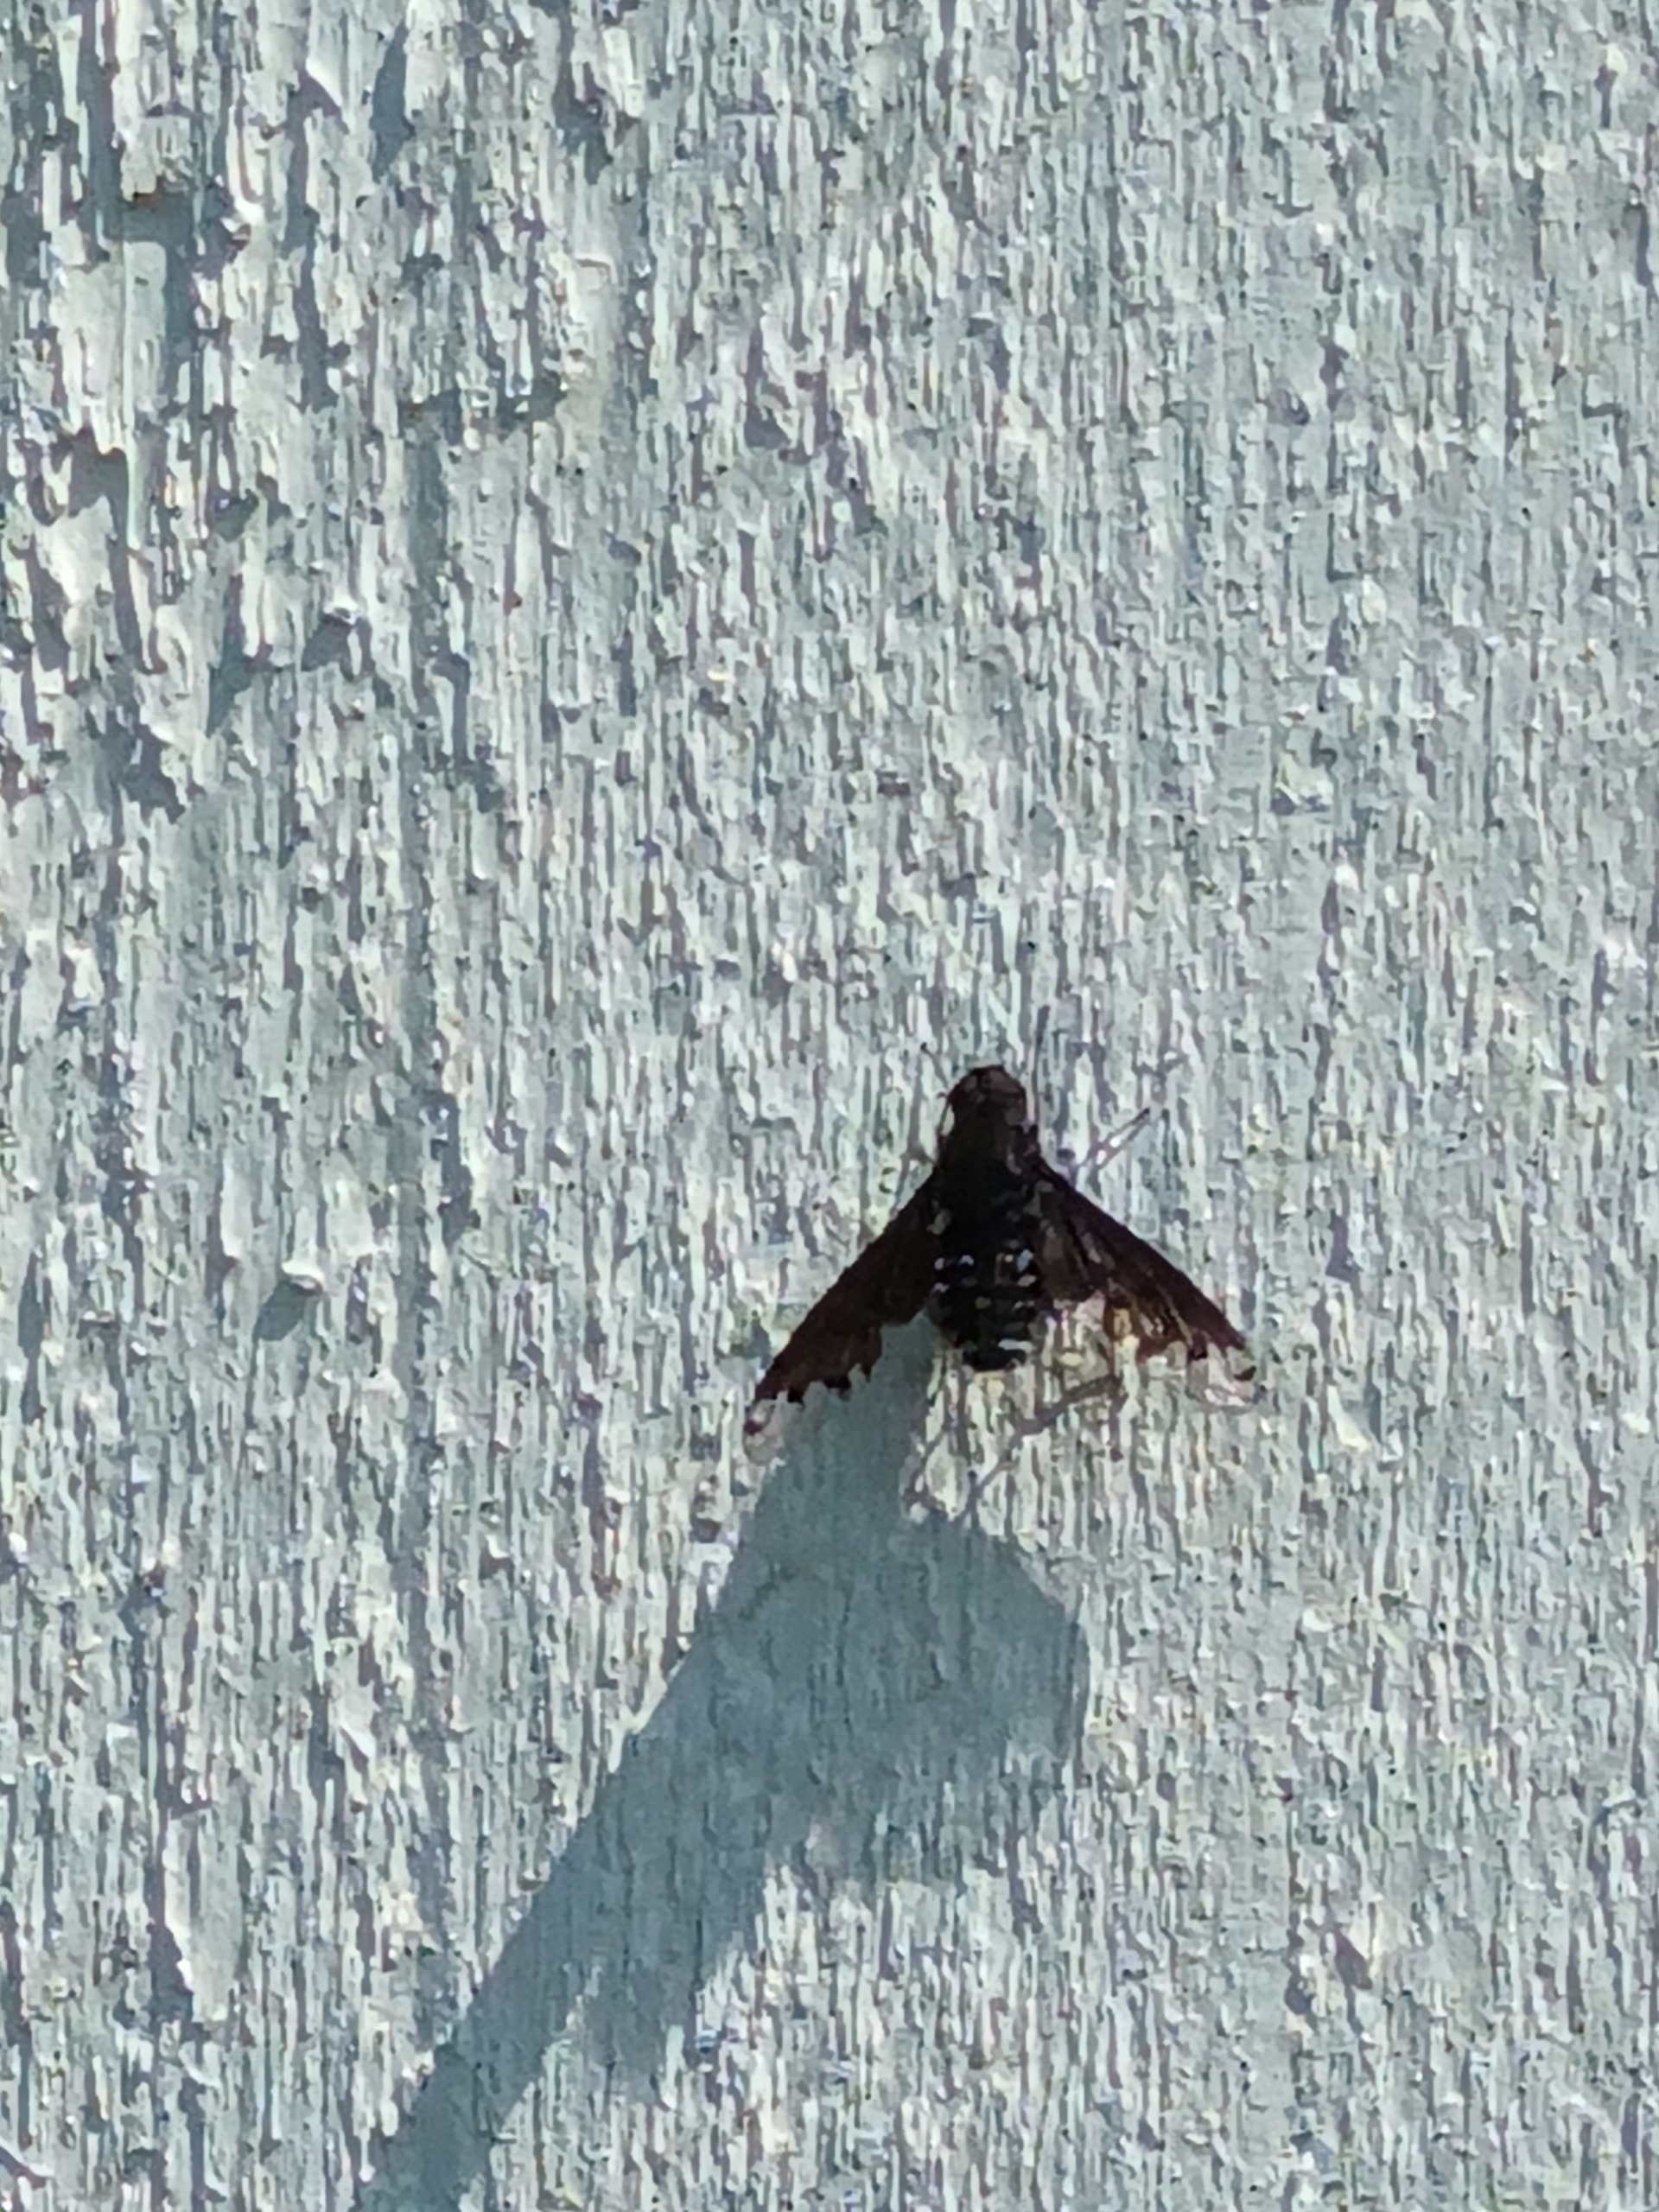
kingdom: Animalia
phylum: Arthropoda
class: Insecta
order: Diptera
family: Bombyliidae
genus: Anthrax
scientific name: Anthrax anthrax
